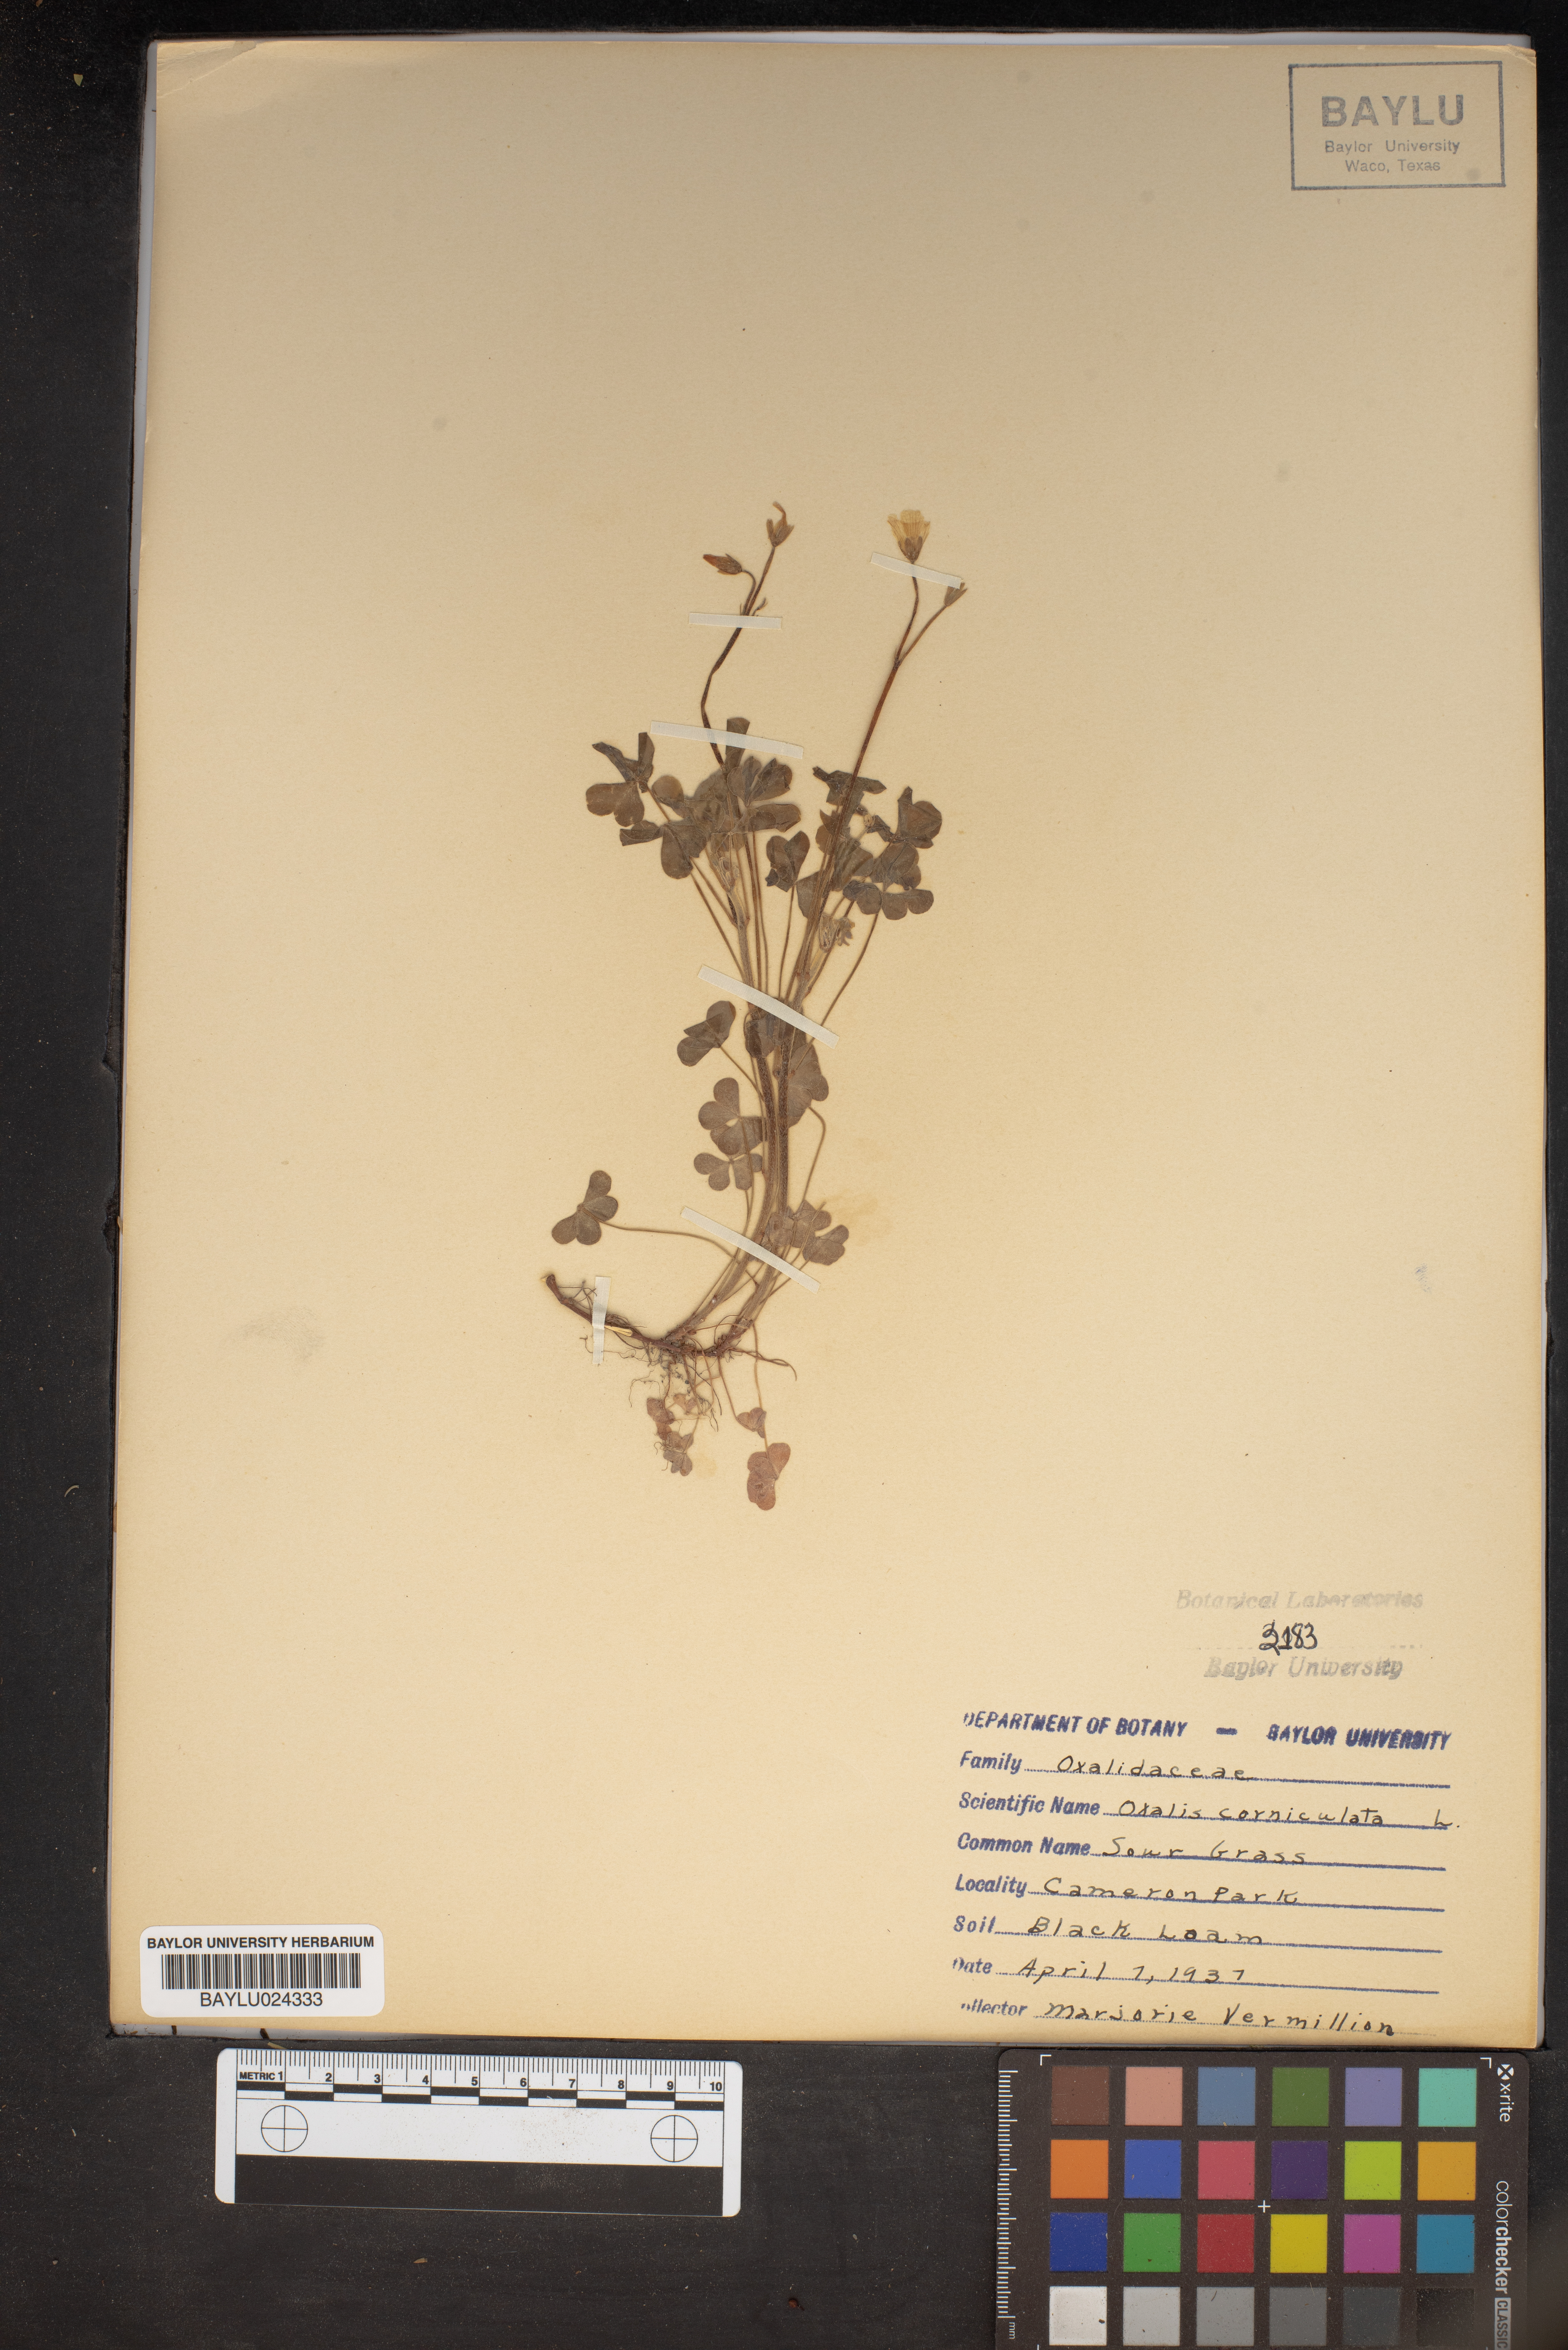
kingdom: Plantae
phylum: Tracheophyta
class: Magnoliopsida
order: Oxalidales
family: Oxalidaceae
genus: Oxalis
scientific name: Oxalis corniculata
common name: Procumbent yellow-sorrel
